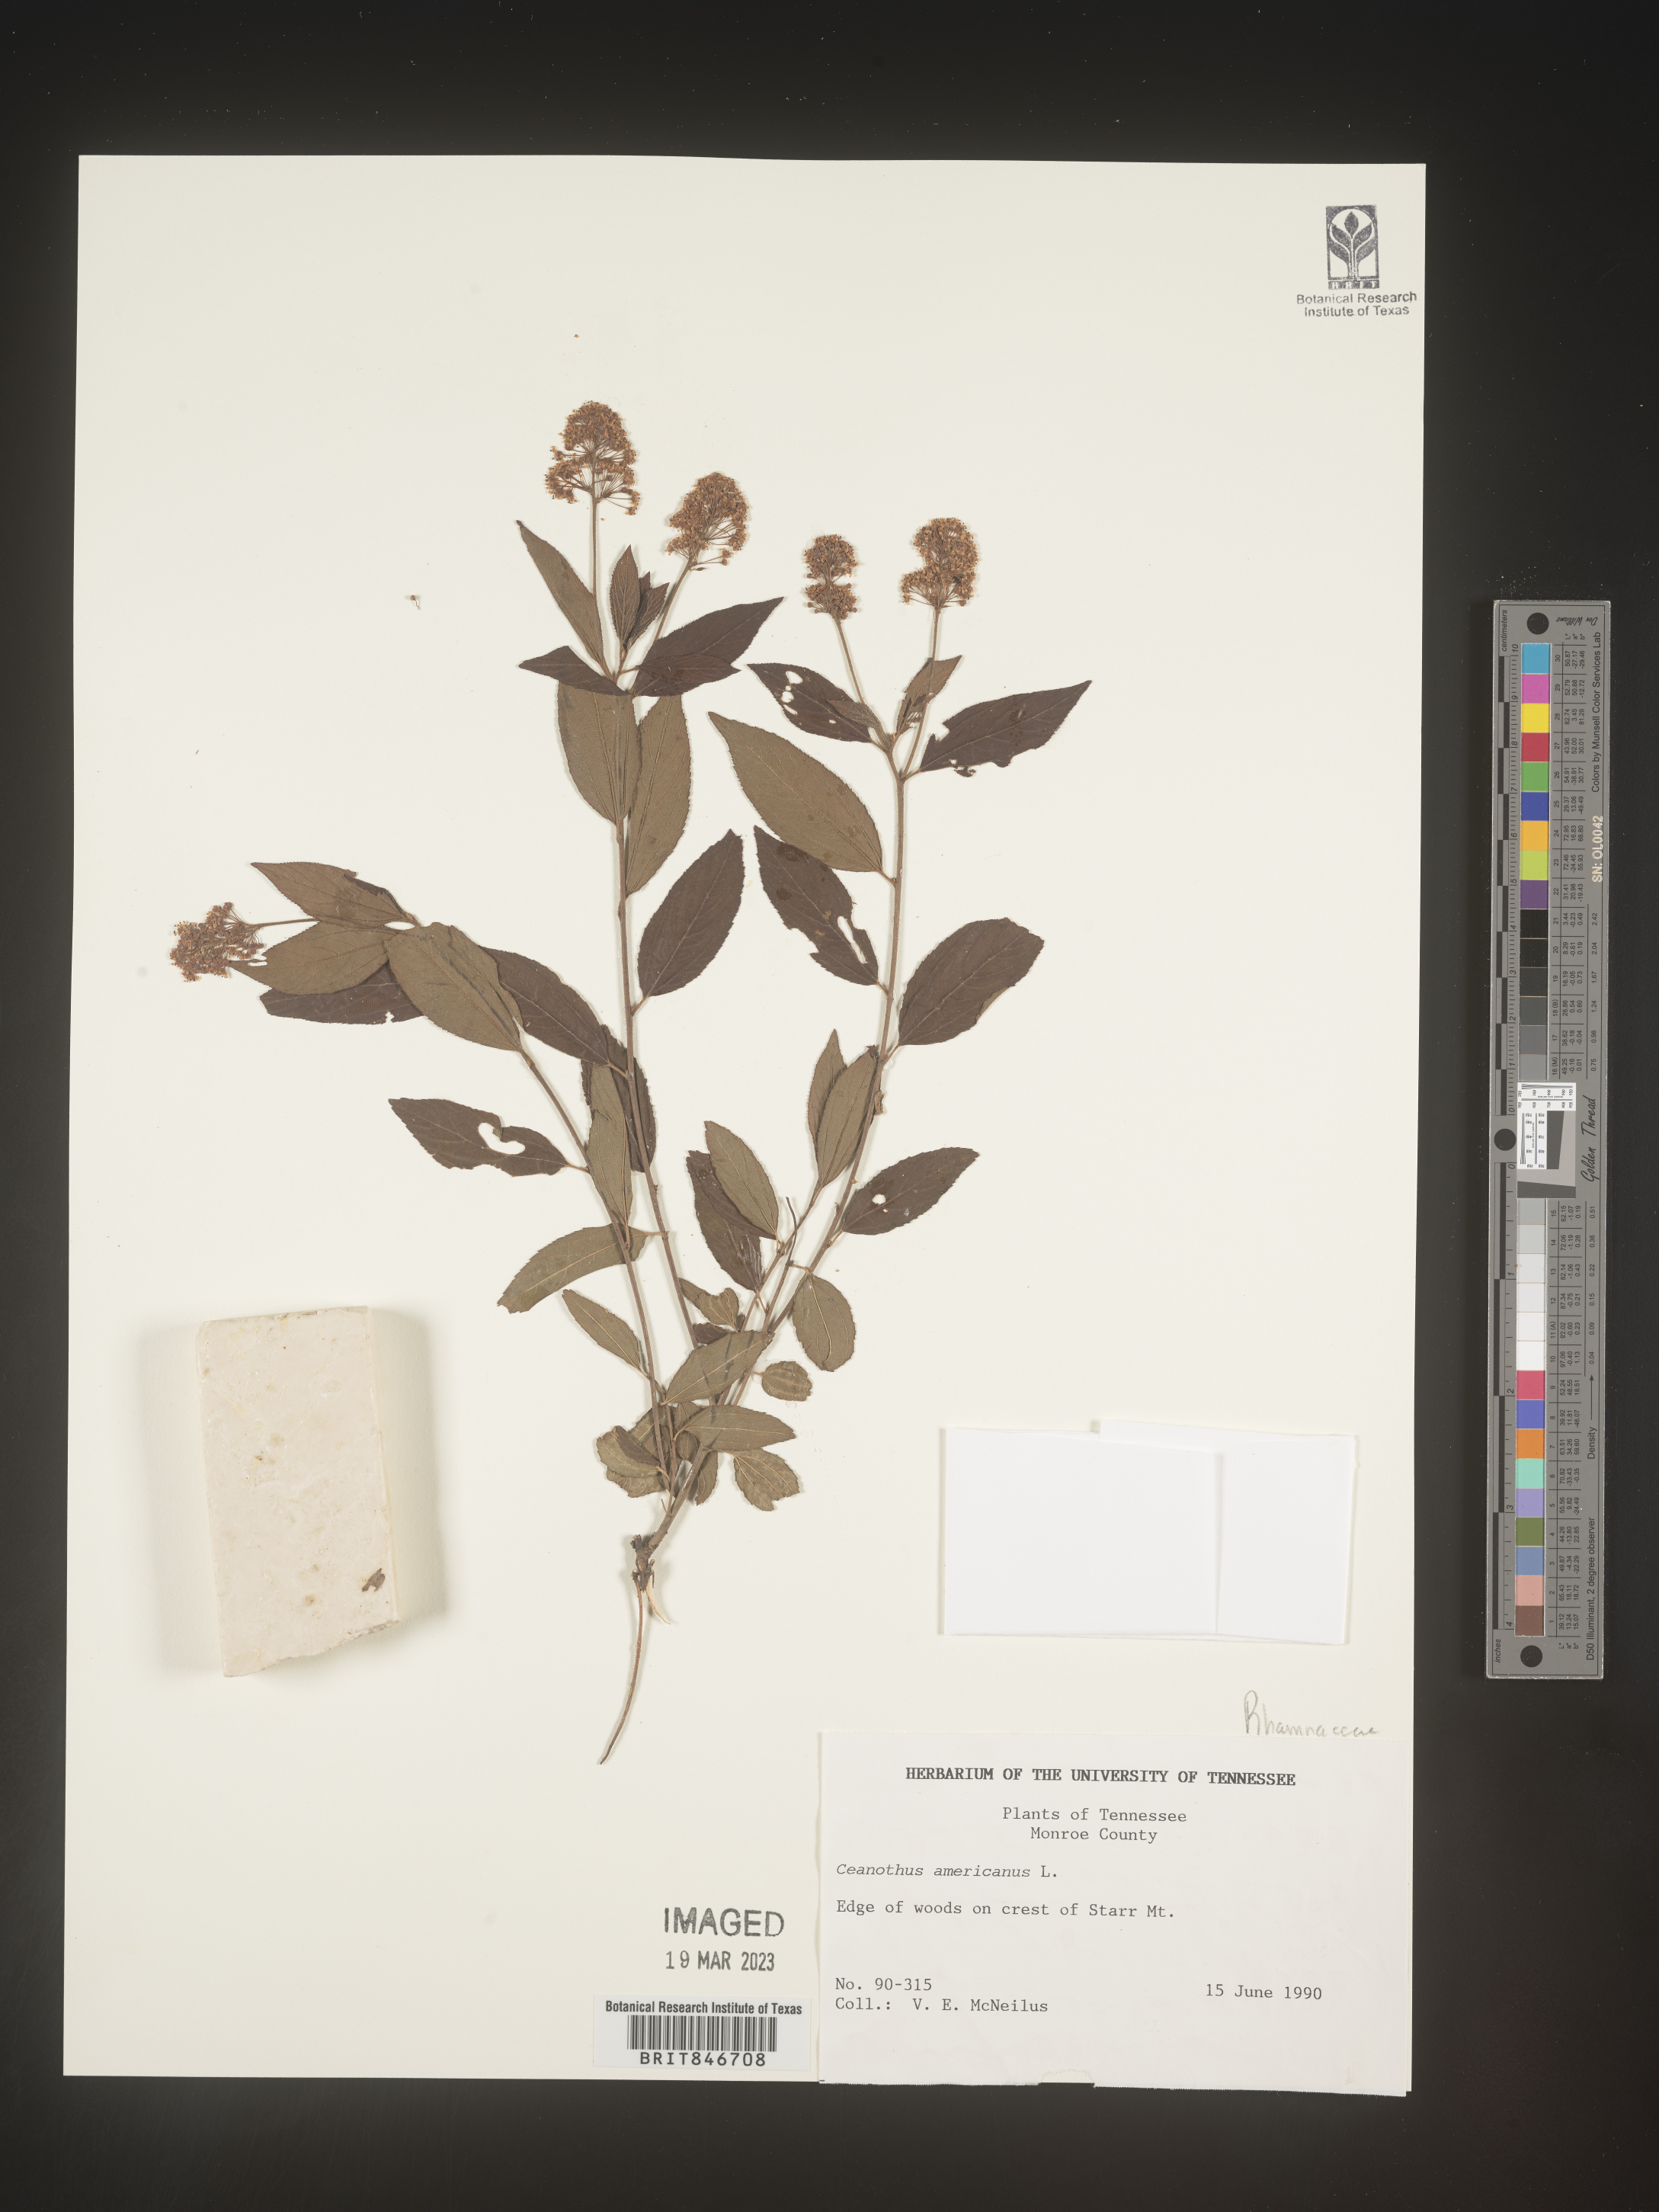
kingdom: Plantae
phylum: Tracheophyta
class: Magnoliopsida
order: Rosales
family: Rhamnaceae
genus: Ceanothus
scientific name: Ceanothus americanus
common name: Redroot
